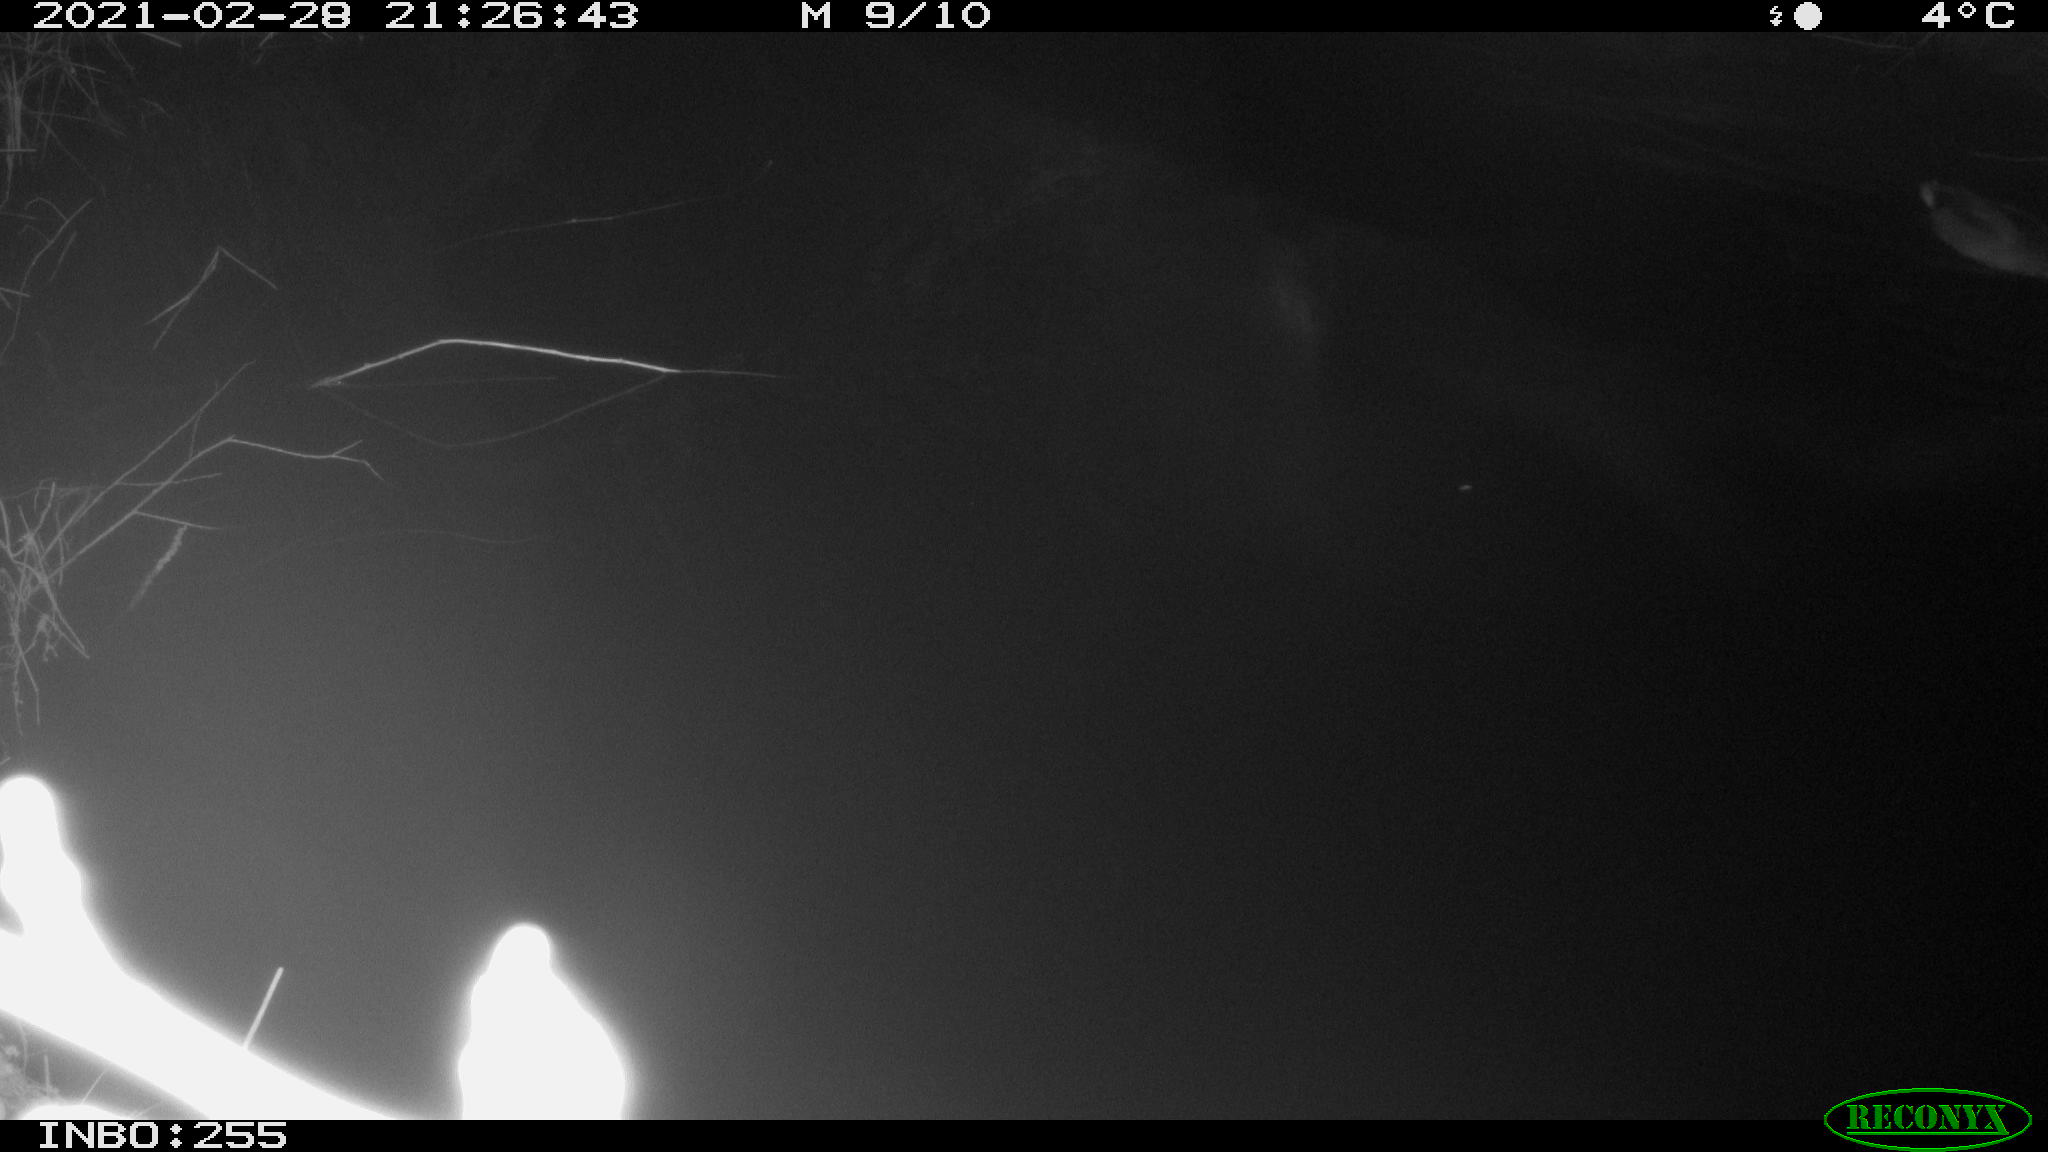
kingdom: Animalia
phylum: Chordata
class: Aves
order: Anseriformes
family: Anatidae
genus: Anas
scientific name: Anas platyrhynchos
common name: Mallard
